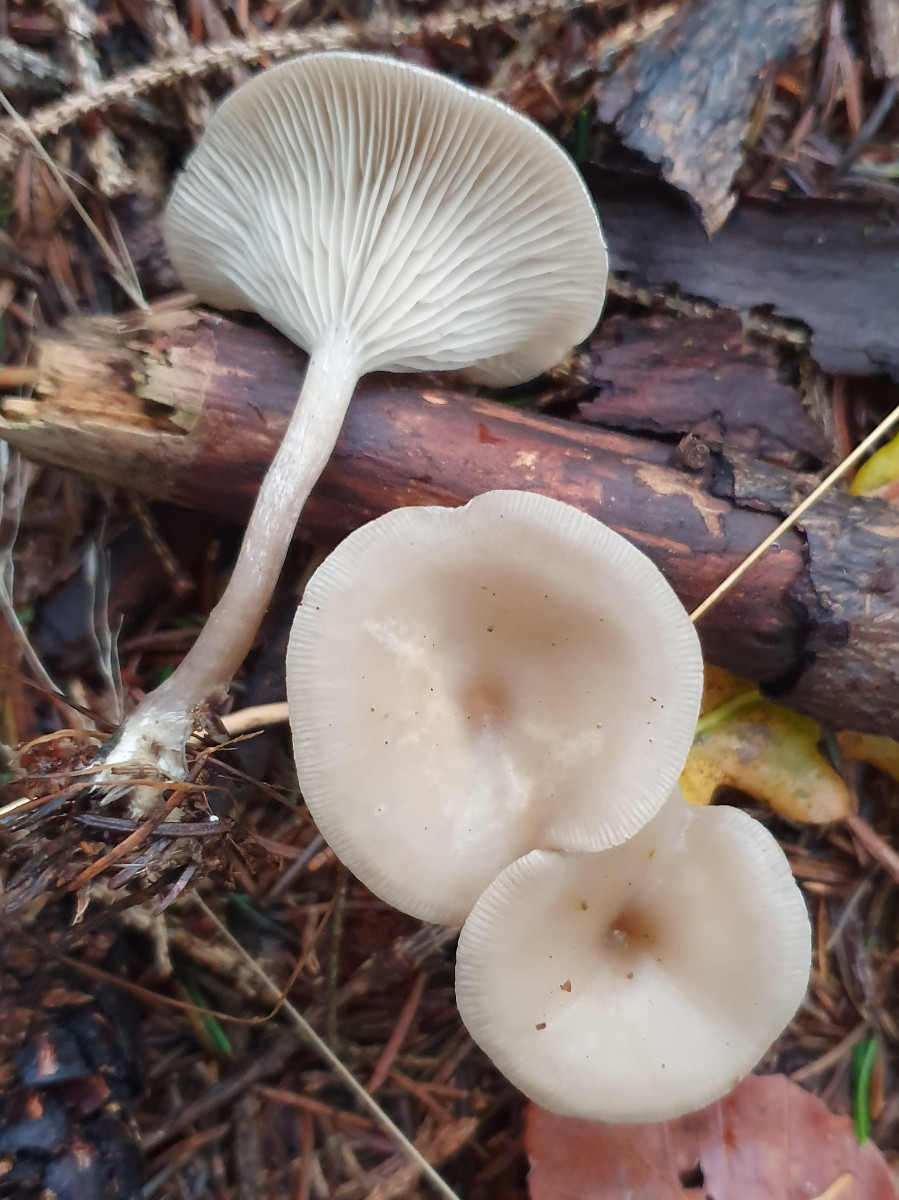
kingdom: Fungi
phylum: Basidiomycota
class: Agaricomycetes
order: Agaricales
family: Tricholomataceae
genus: Clitocybe
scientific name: Clitocybe
